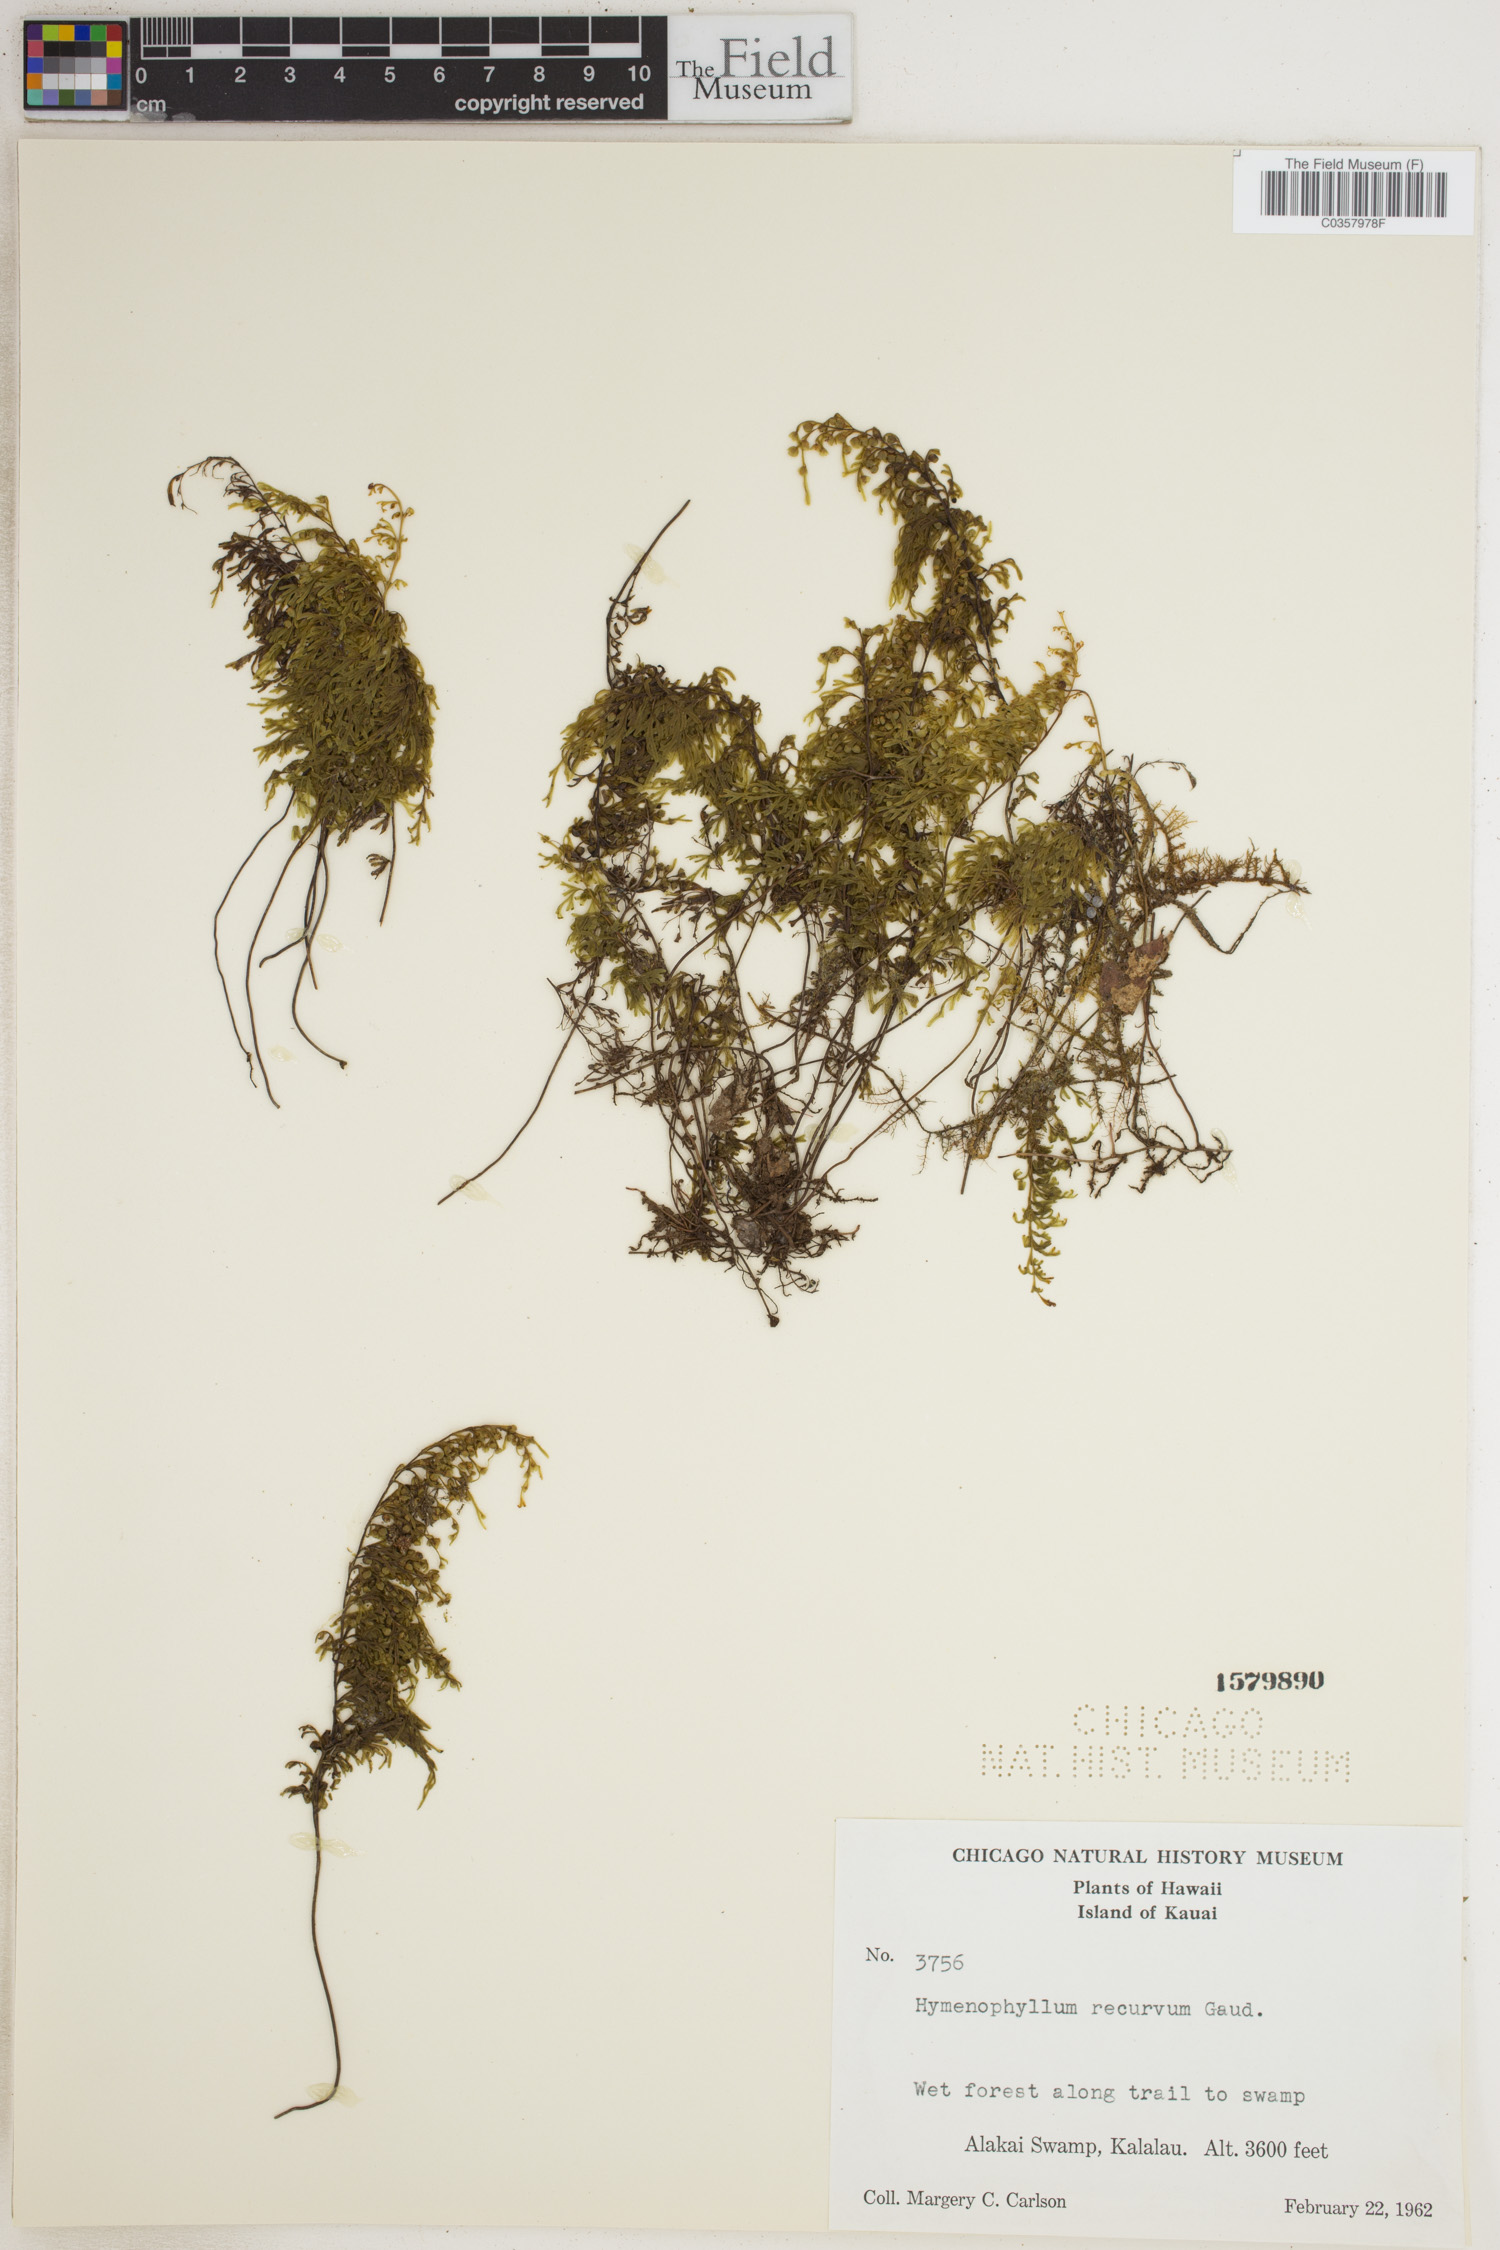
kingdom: Plantae
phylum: Tracheophyta
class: Polypodiopsida
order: Hymenophyllales
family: Hymenophyllaceae
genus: Hymenophyllum
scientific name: Hymenophyllum recurvum
